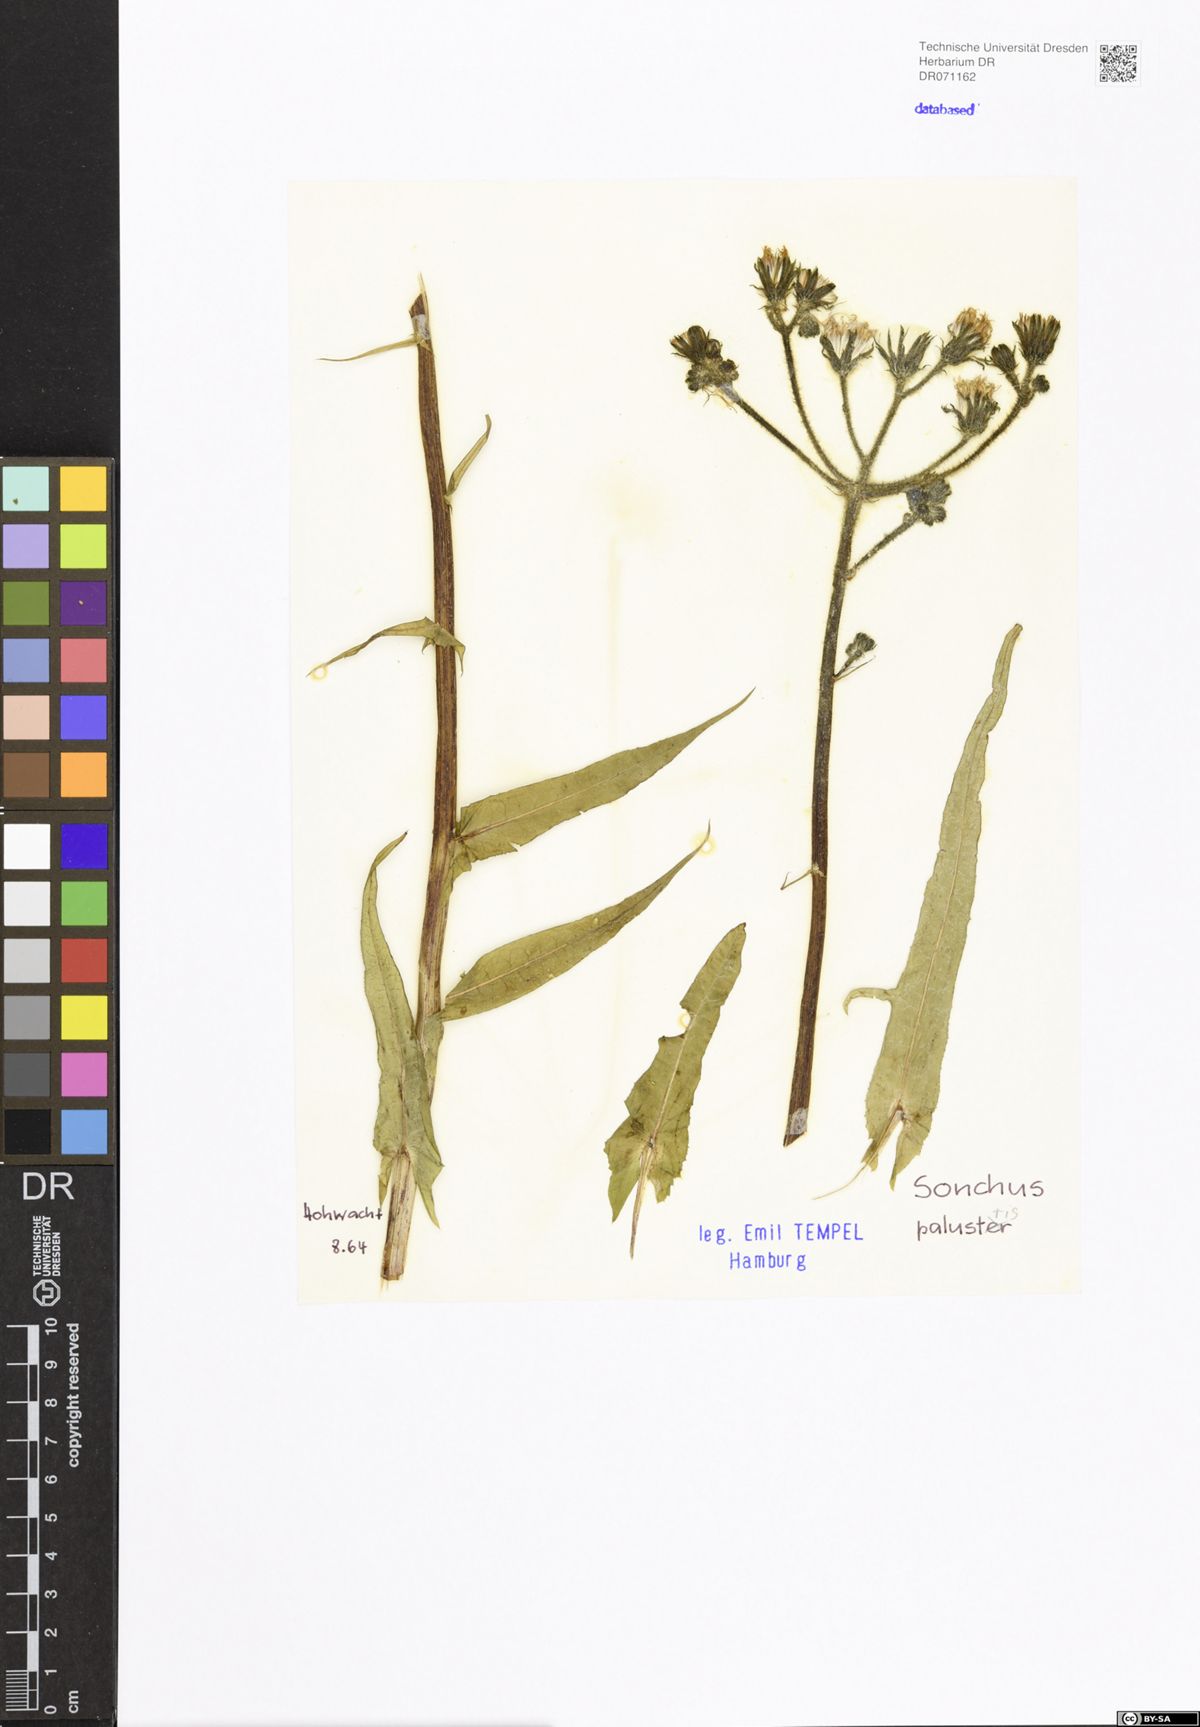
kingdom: Plantae
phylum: Tracheophyta
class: Magnoliopsida
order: Asterales
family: Asteraceae
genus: Sonchus
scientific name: Sonchus palustris
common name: Marsh sow-thistle
